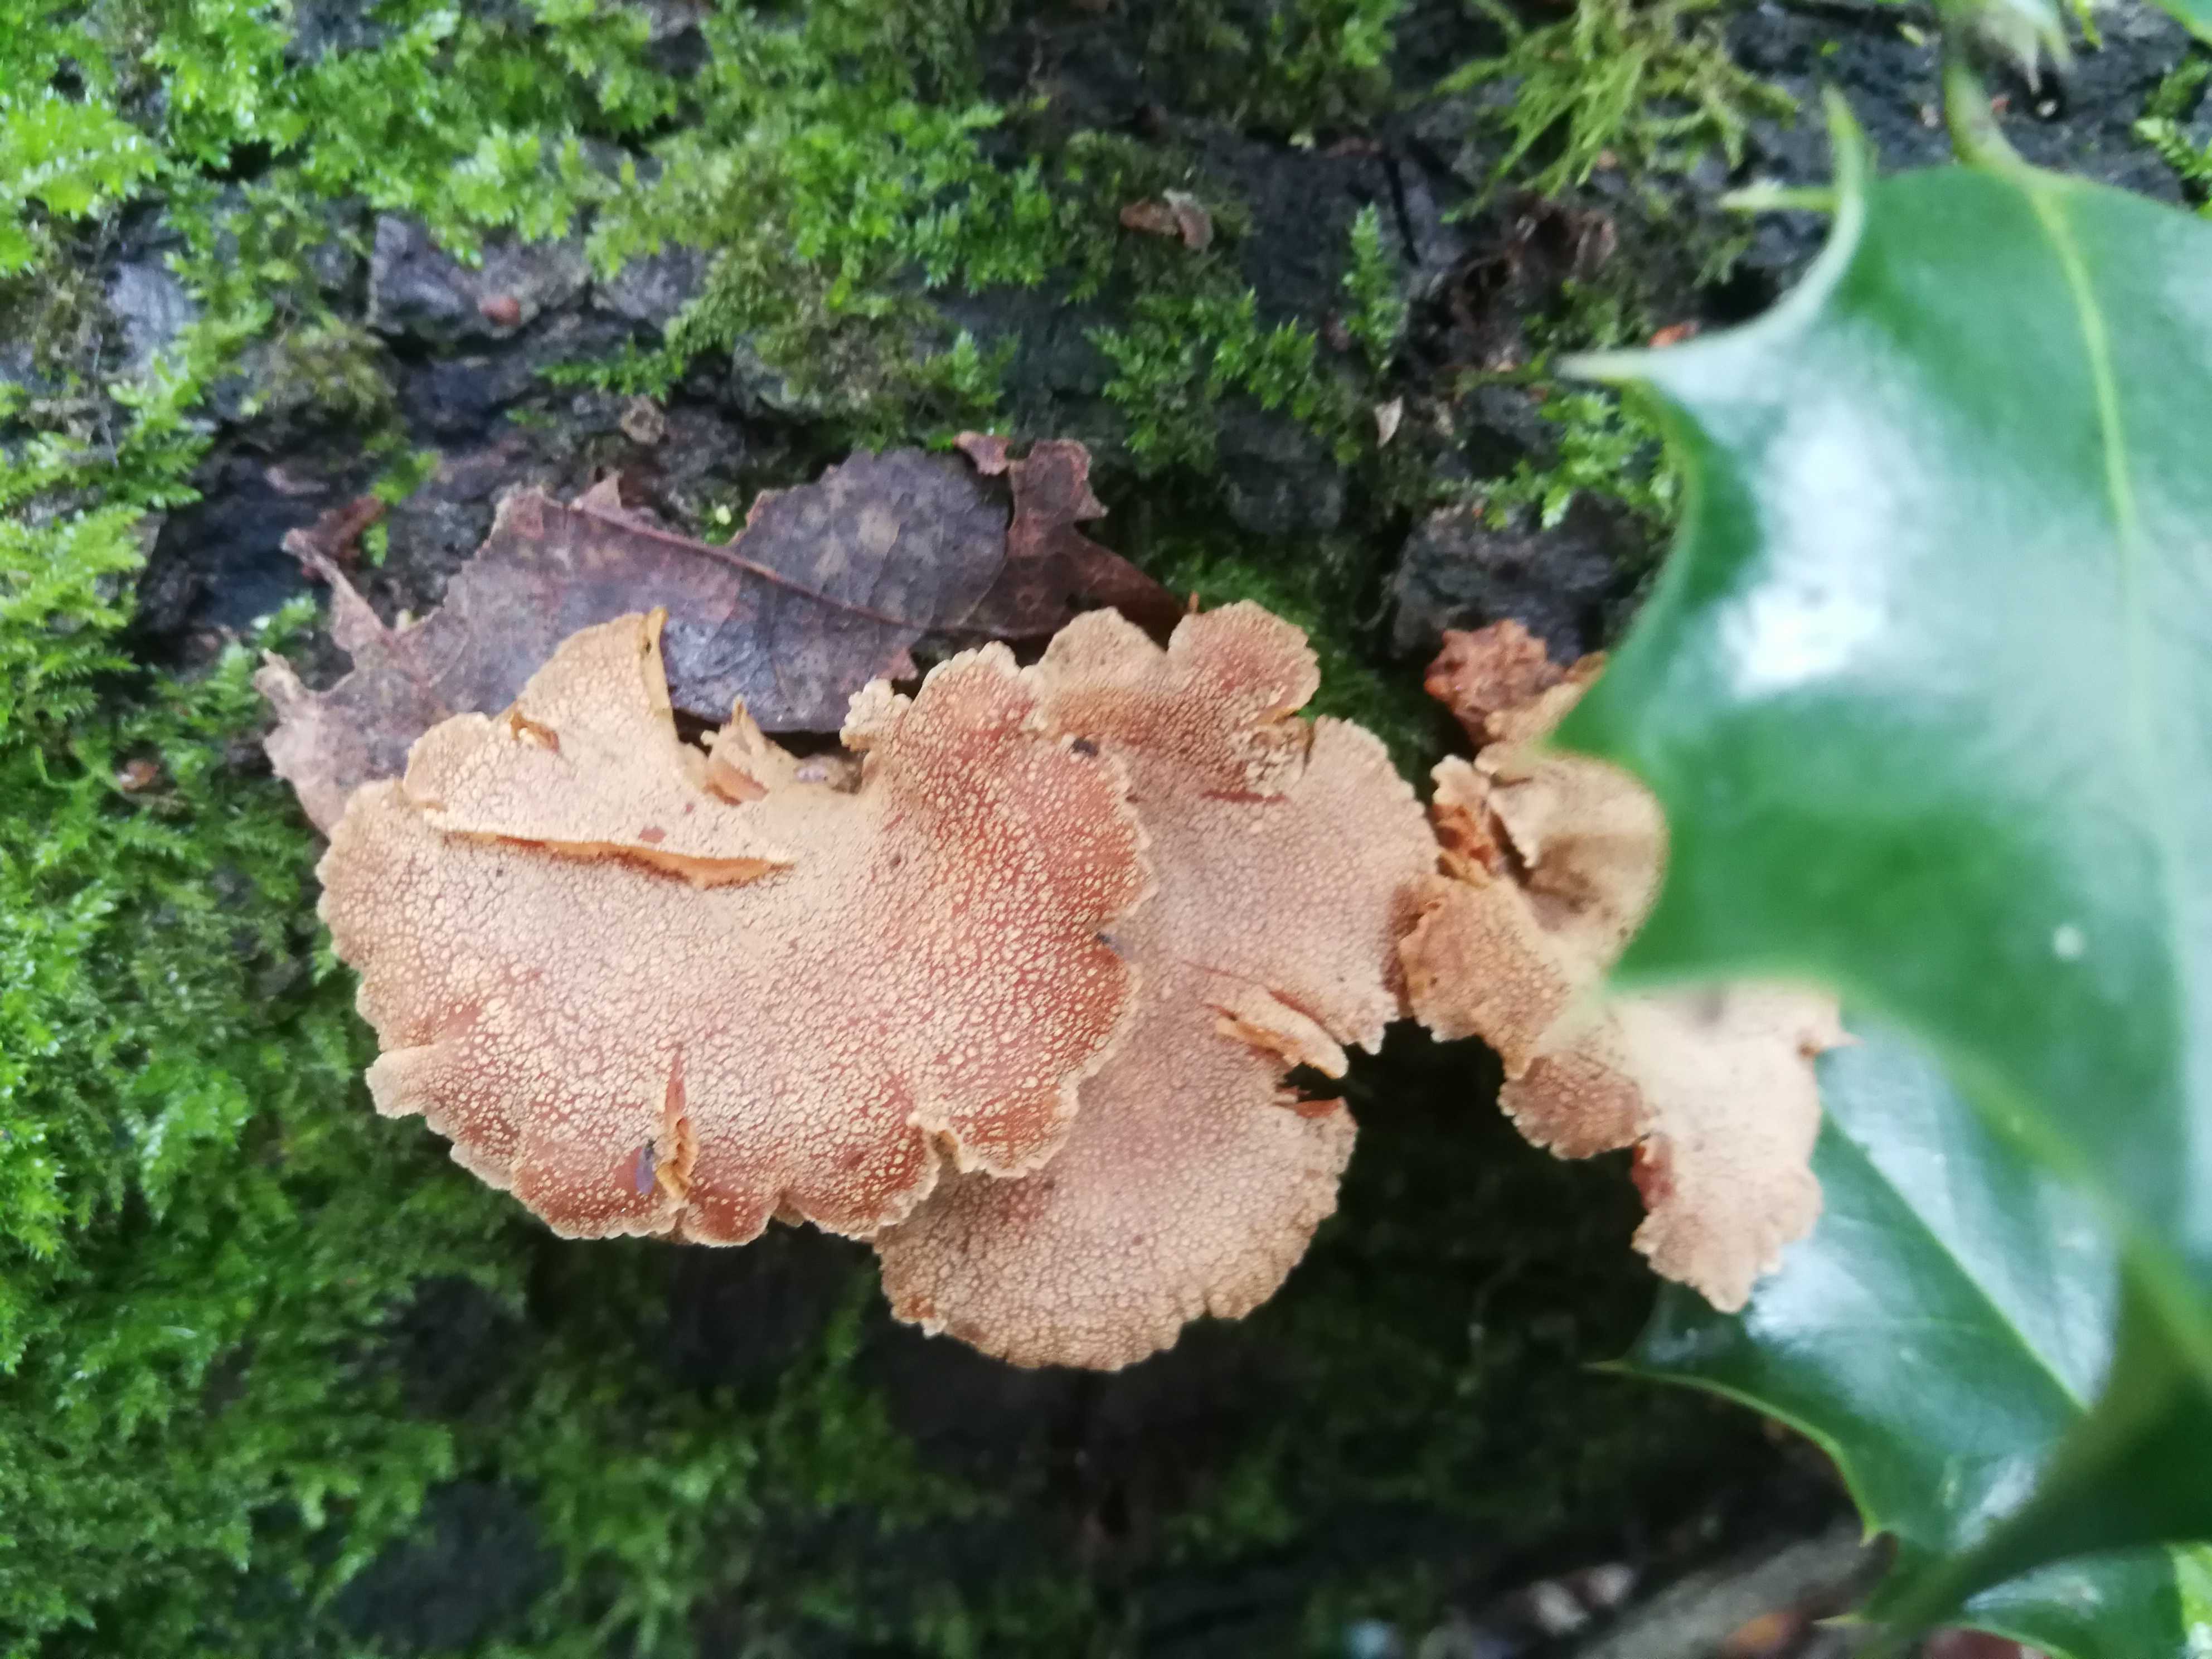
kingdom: Fungi
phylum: Basidiomycota
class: Agaricomycetes
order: Agaricales
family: Mycenaceae
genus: Panellus
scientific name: Panellus stipticus
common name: kliddet epaulethat
